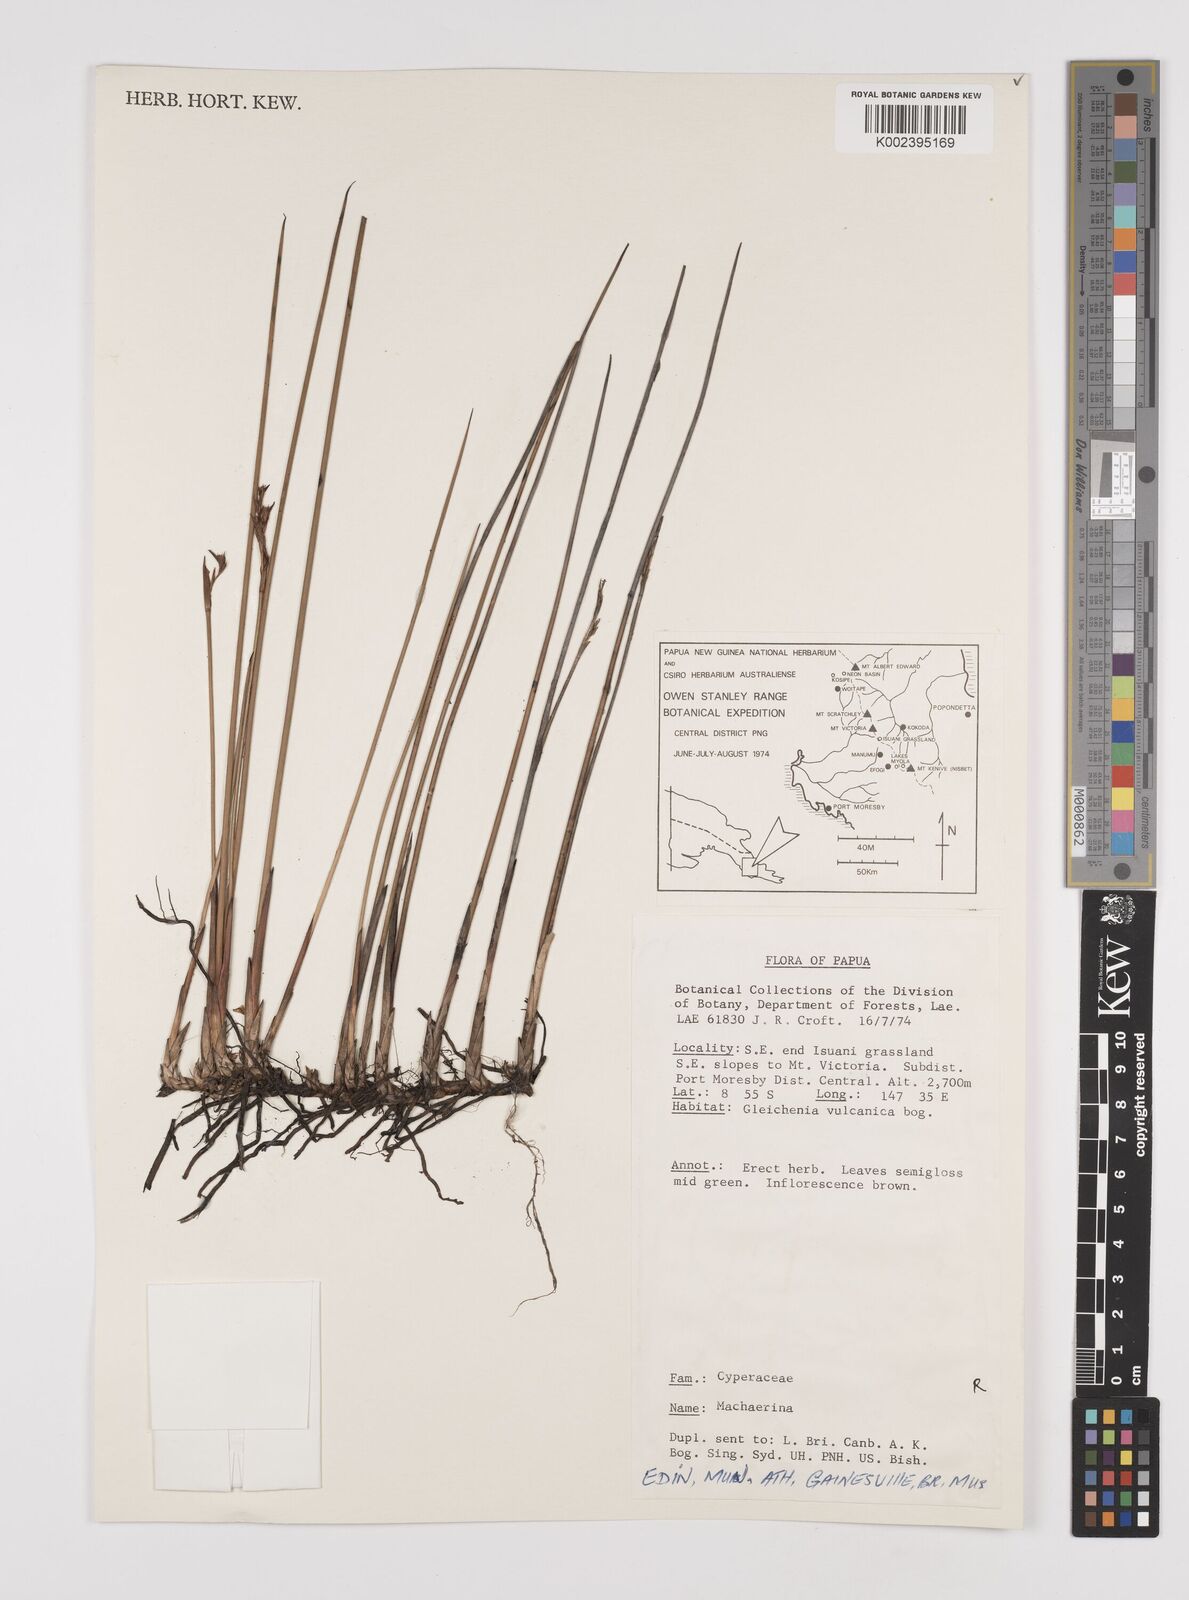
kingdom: Plantae
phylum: Tracheophyta
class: Liliopsida
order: Poales
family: Cyperaceae
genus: Machaerina
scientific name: Machaerina
